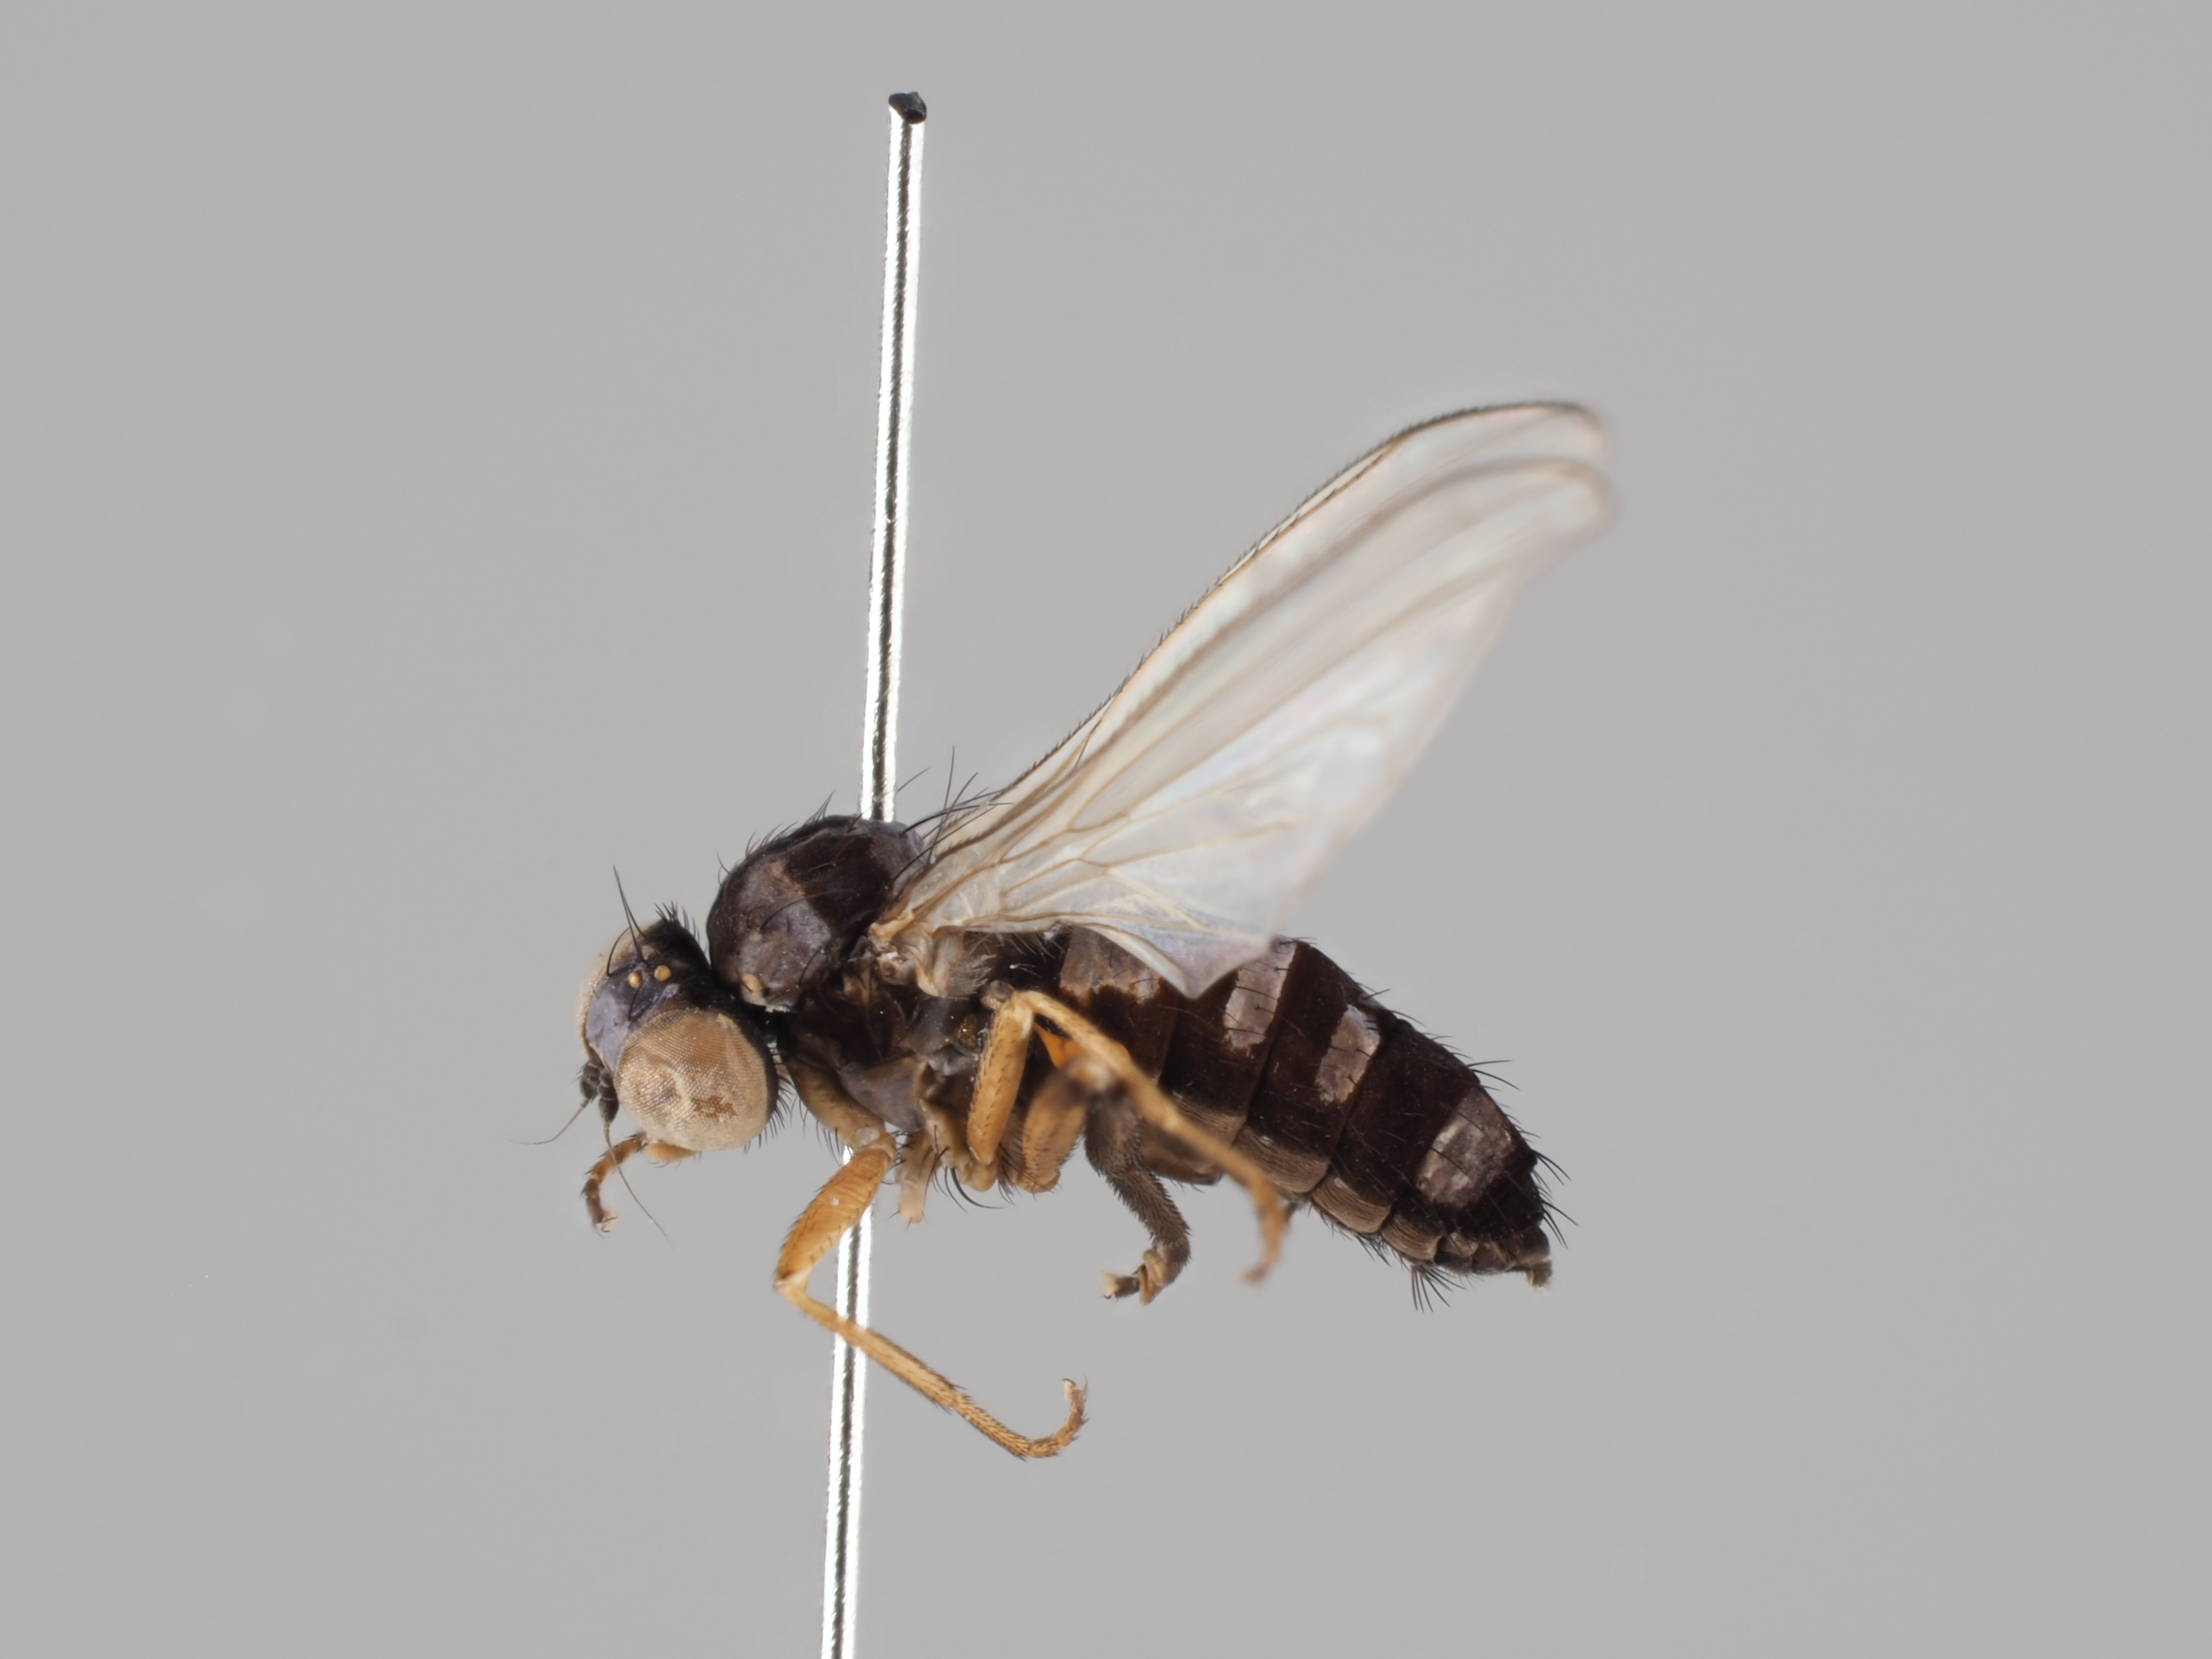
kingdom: Animalia
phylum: Arthropoda
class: Insecta
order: Diptera
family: Platypezidae
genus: Callomyia
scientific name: Callomyia speciosa
